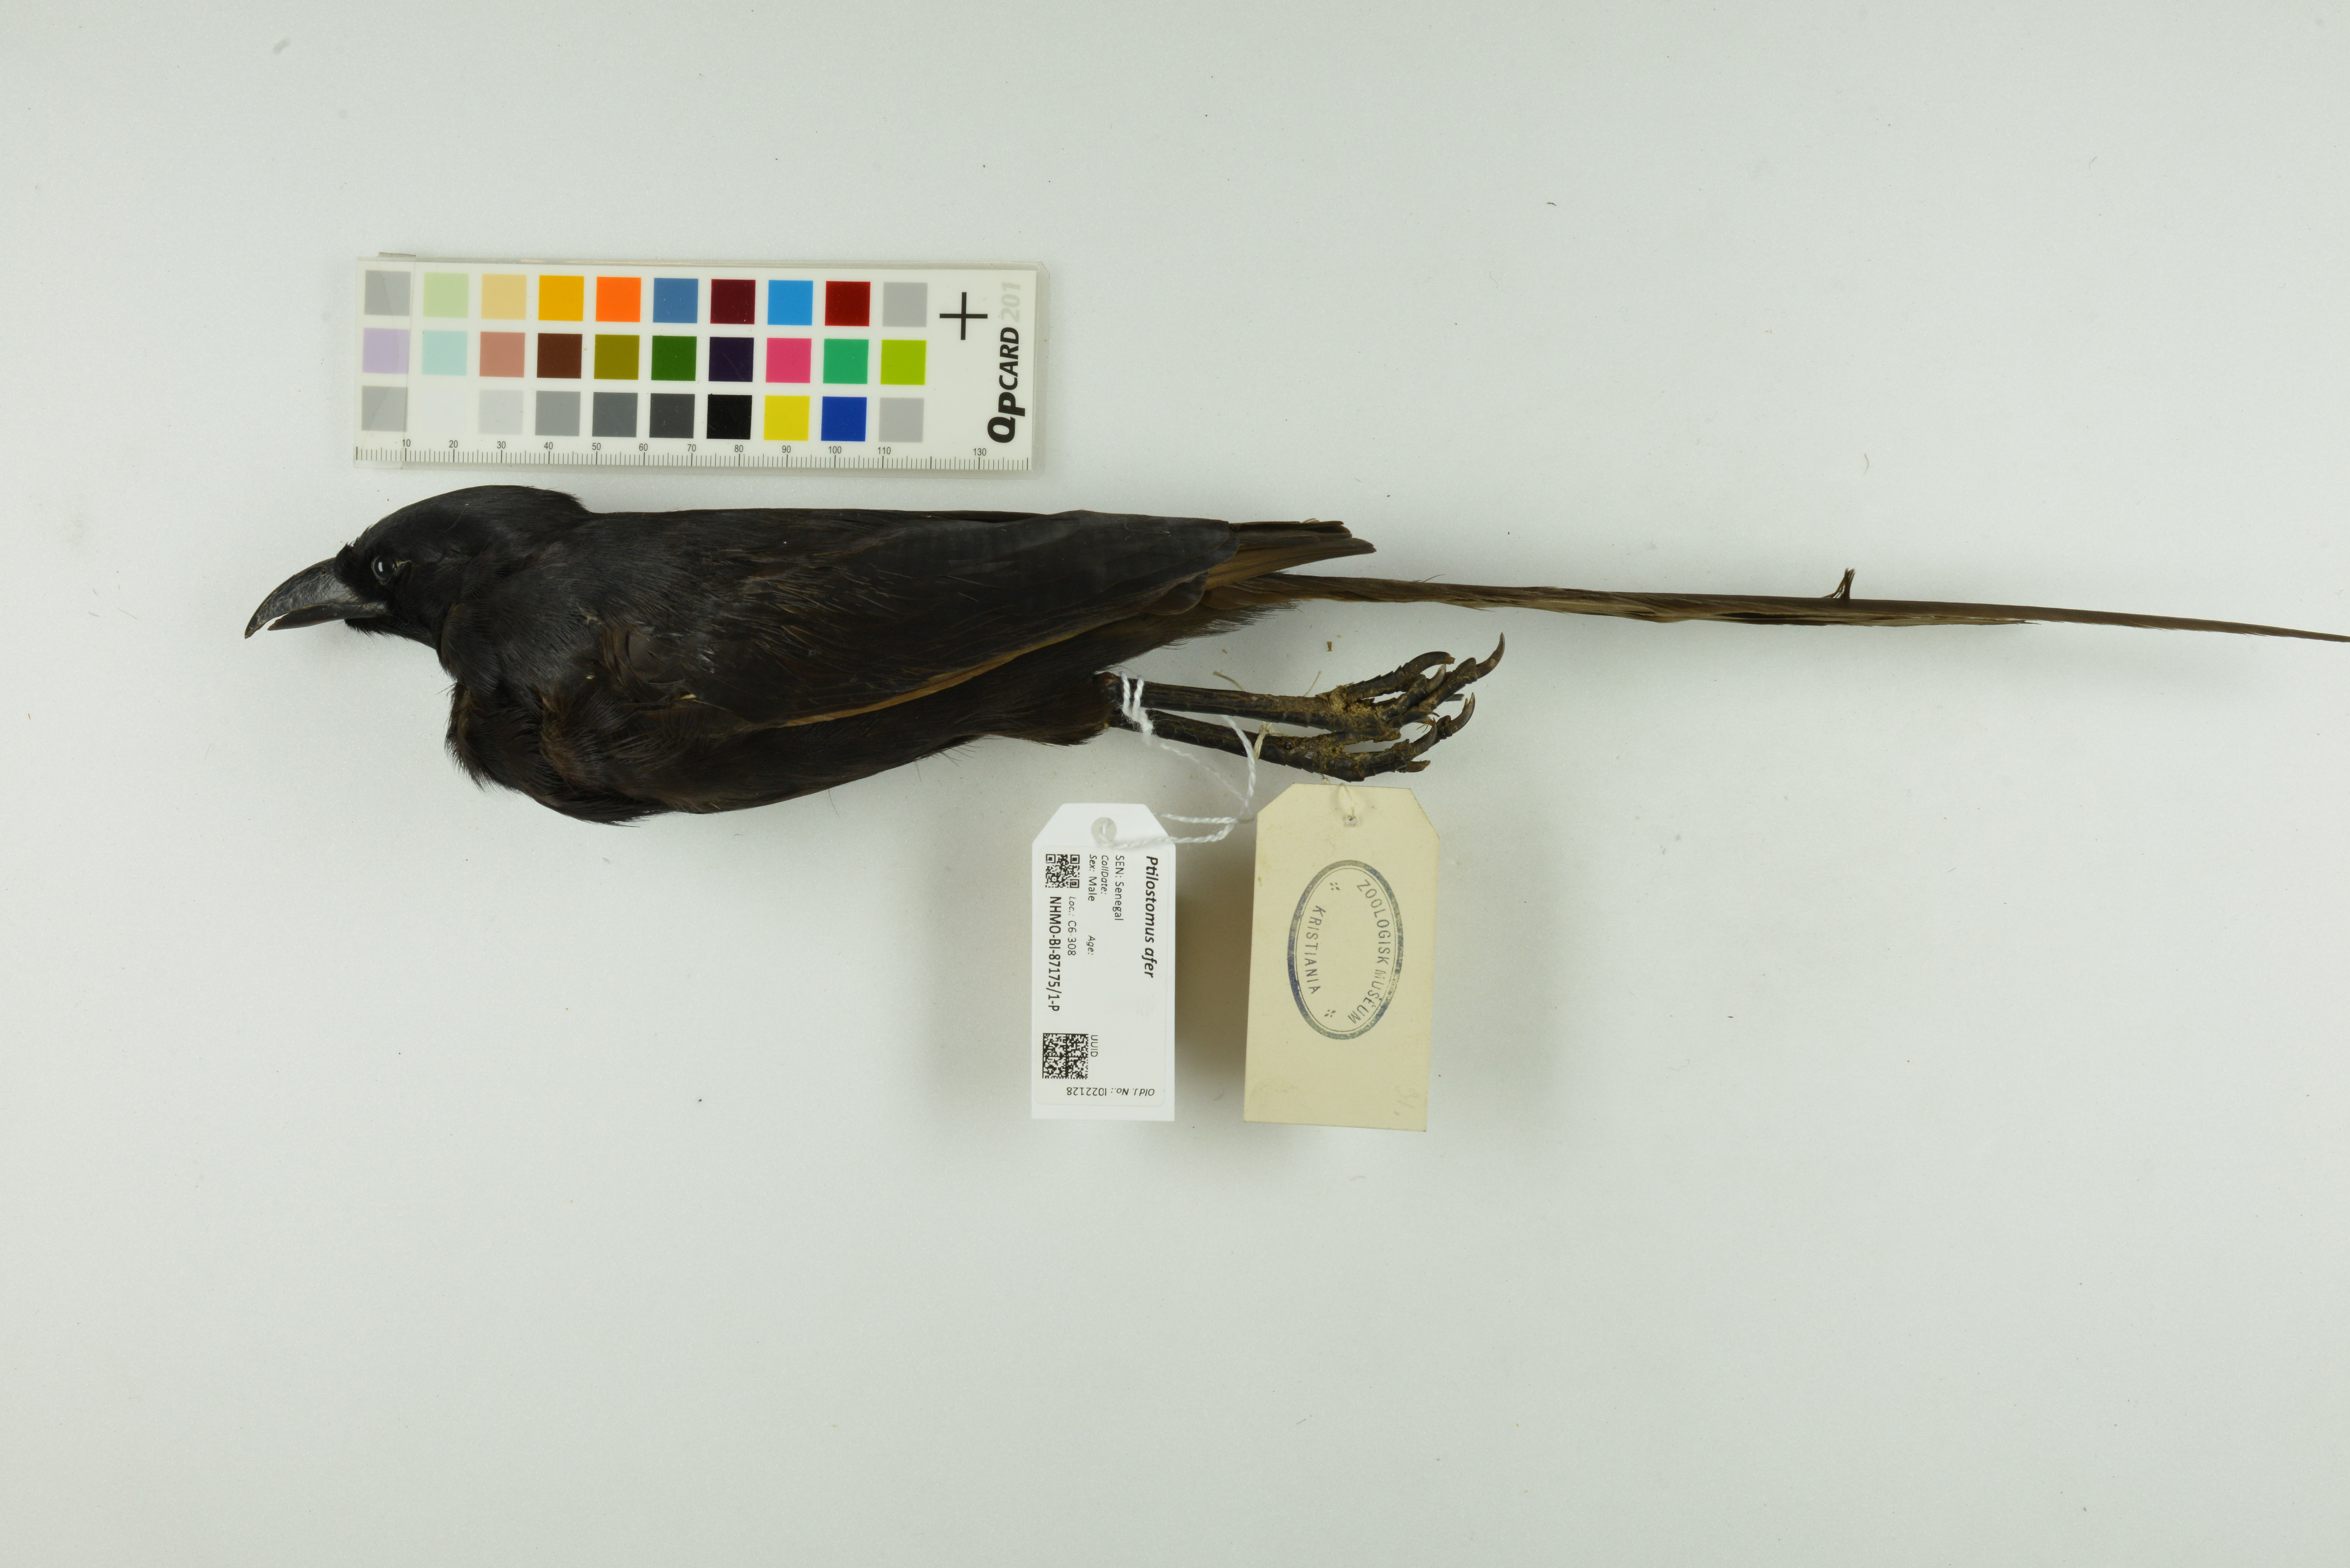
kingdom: Animalia
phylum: Chordata
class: Aves
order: Passeriformes
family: Corvidae
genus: Ptilostomus
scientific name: Ptilostomus afer
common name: Piapiac
